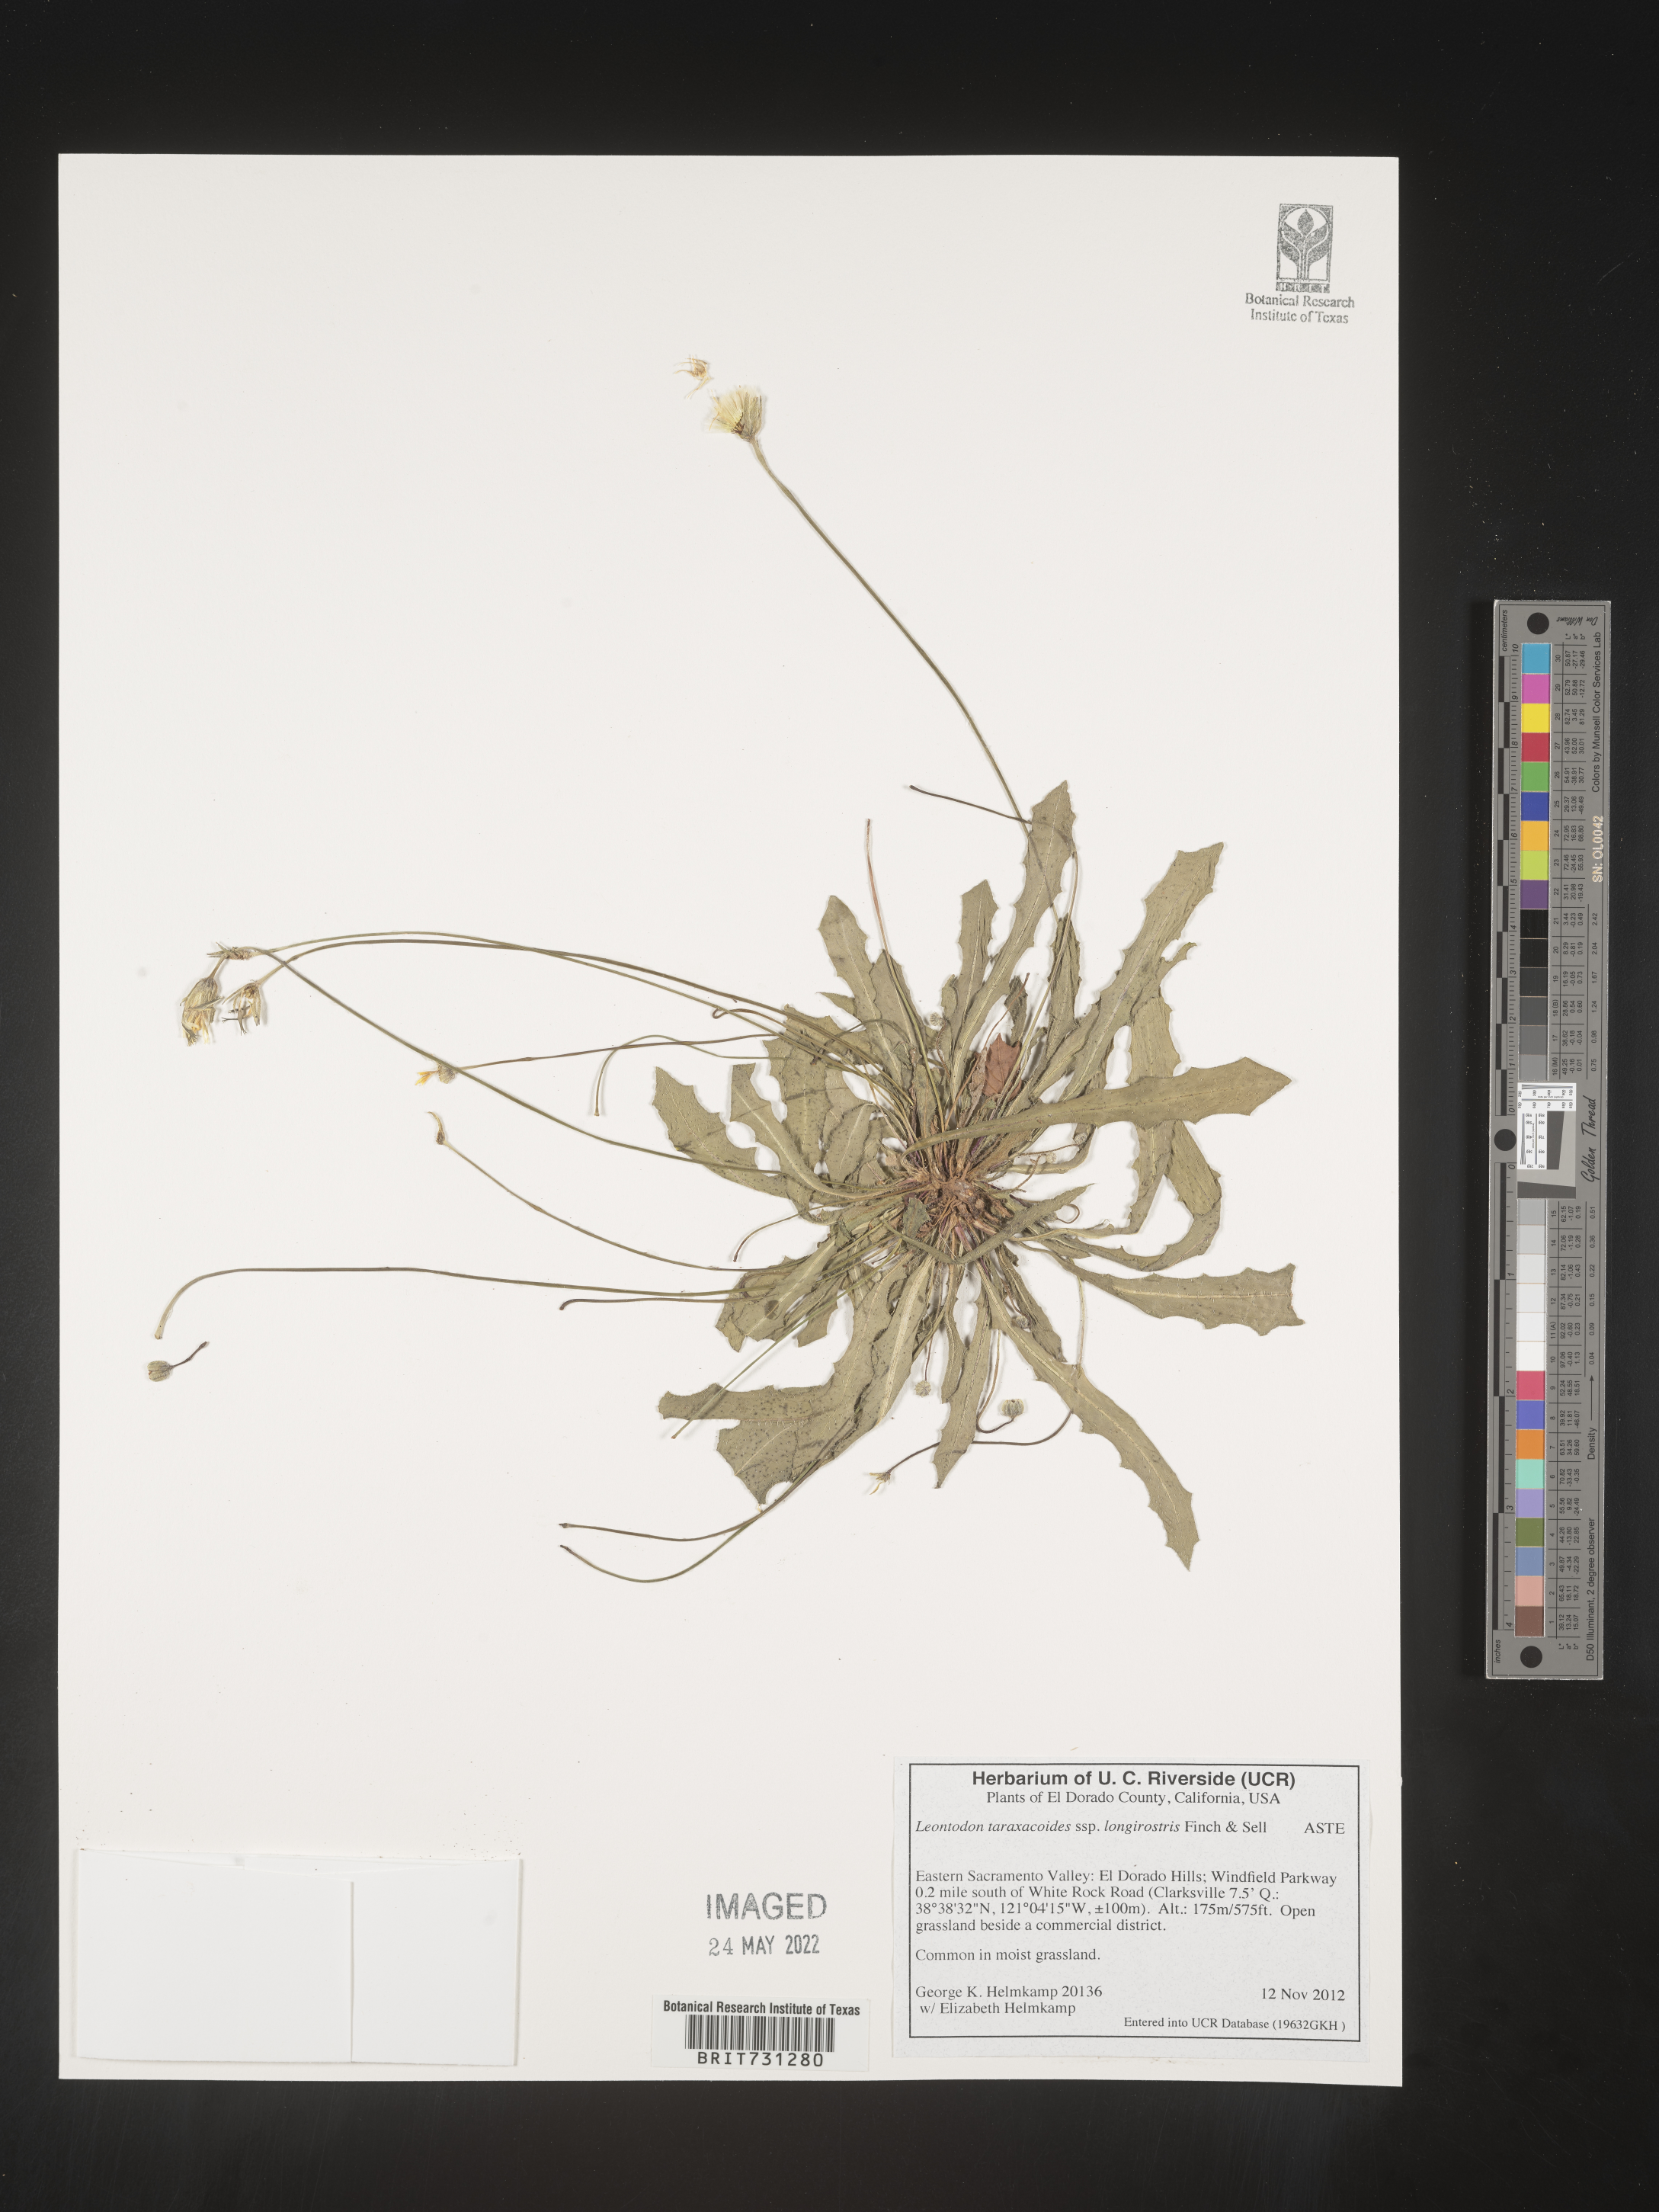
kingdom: Plantae
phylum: Tracheophyta
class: Magnoliopsida
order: Asterales
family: Asteraceae
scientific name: Asteraceae
